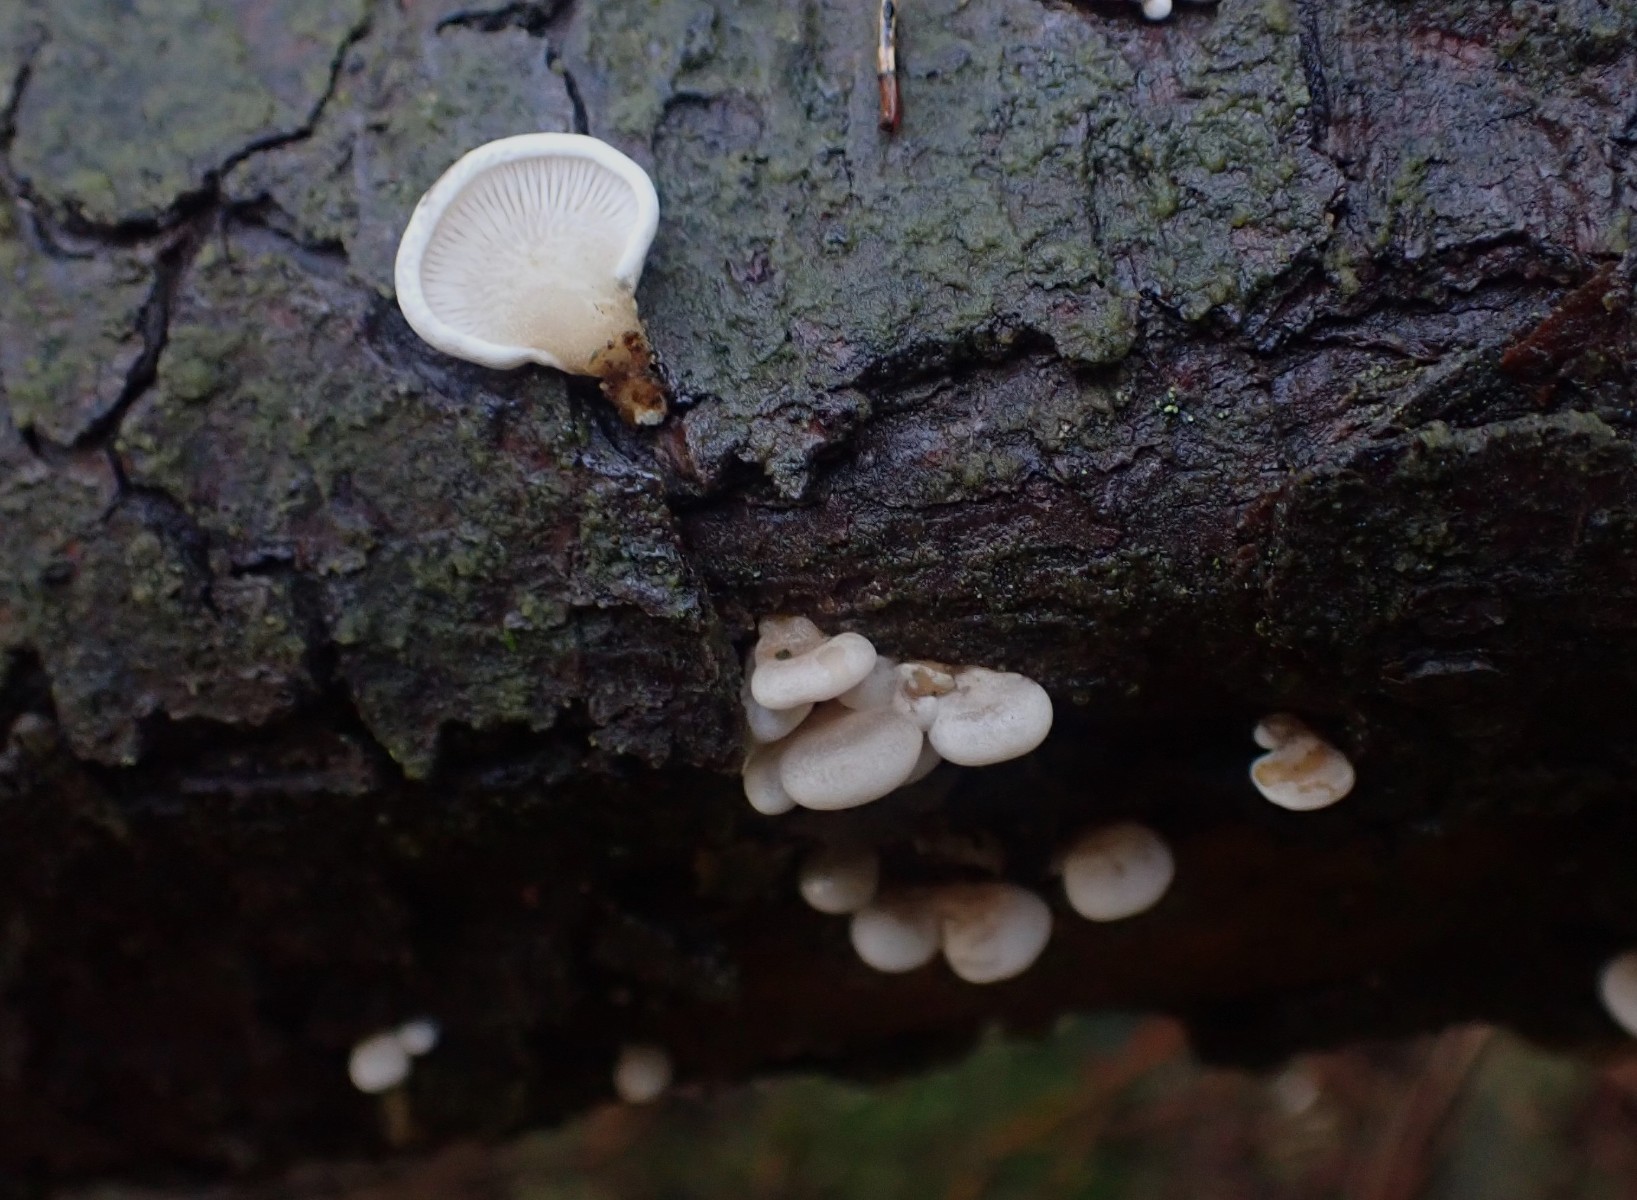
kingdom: Fungi
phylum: Basidiomycota
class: Agaricomycetes
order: Agaricales
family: Mycenaceae
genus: Panellus
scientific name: Panellus mitis
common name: mild epaulethat
